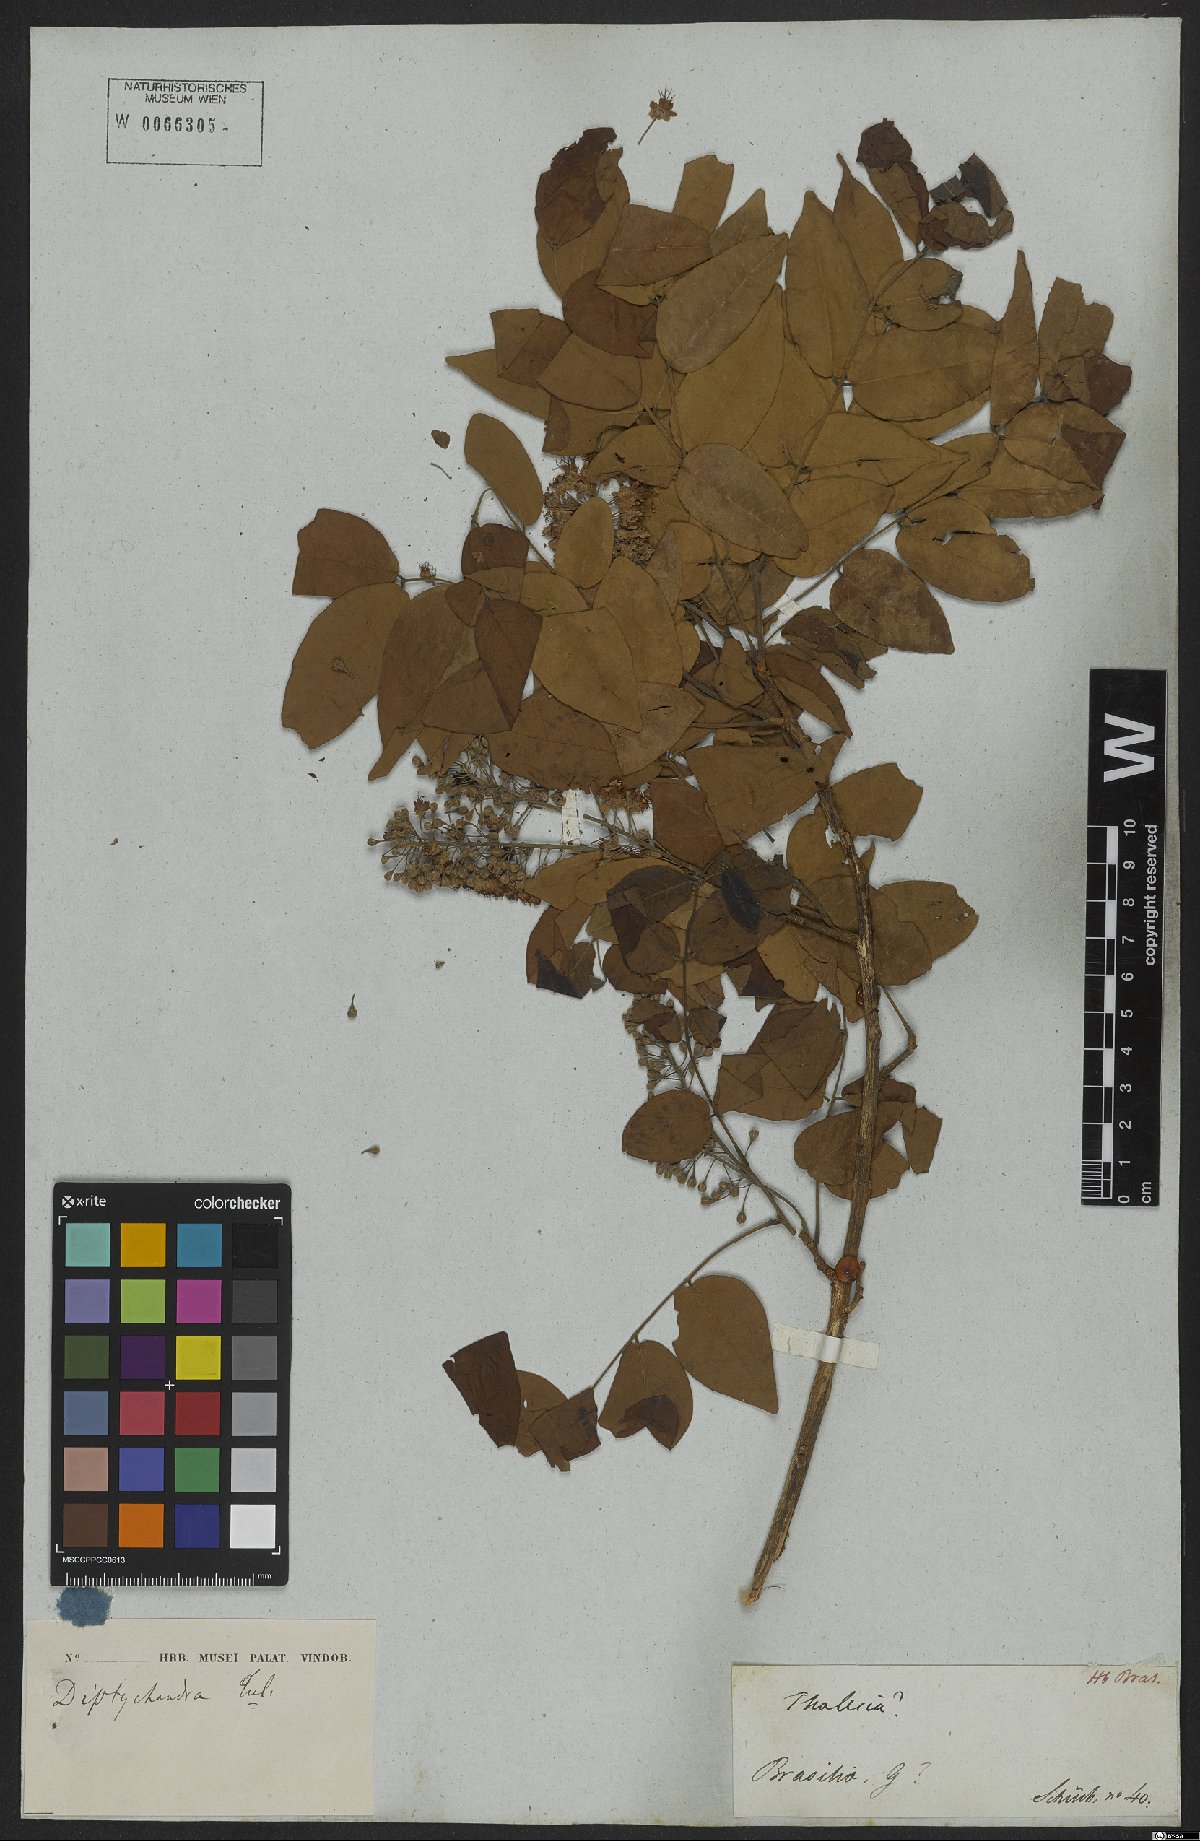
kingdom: Plantae
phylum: Tracheophyta
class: Magnoliopsida
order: Fabales
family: Fabaceae
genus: Diptychandra
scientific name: Diptychandra
